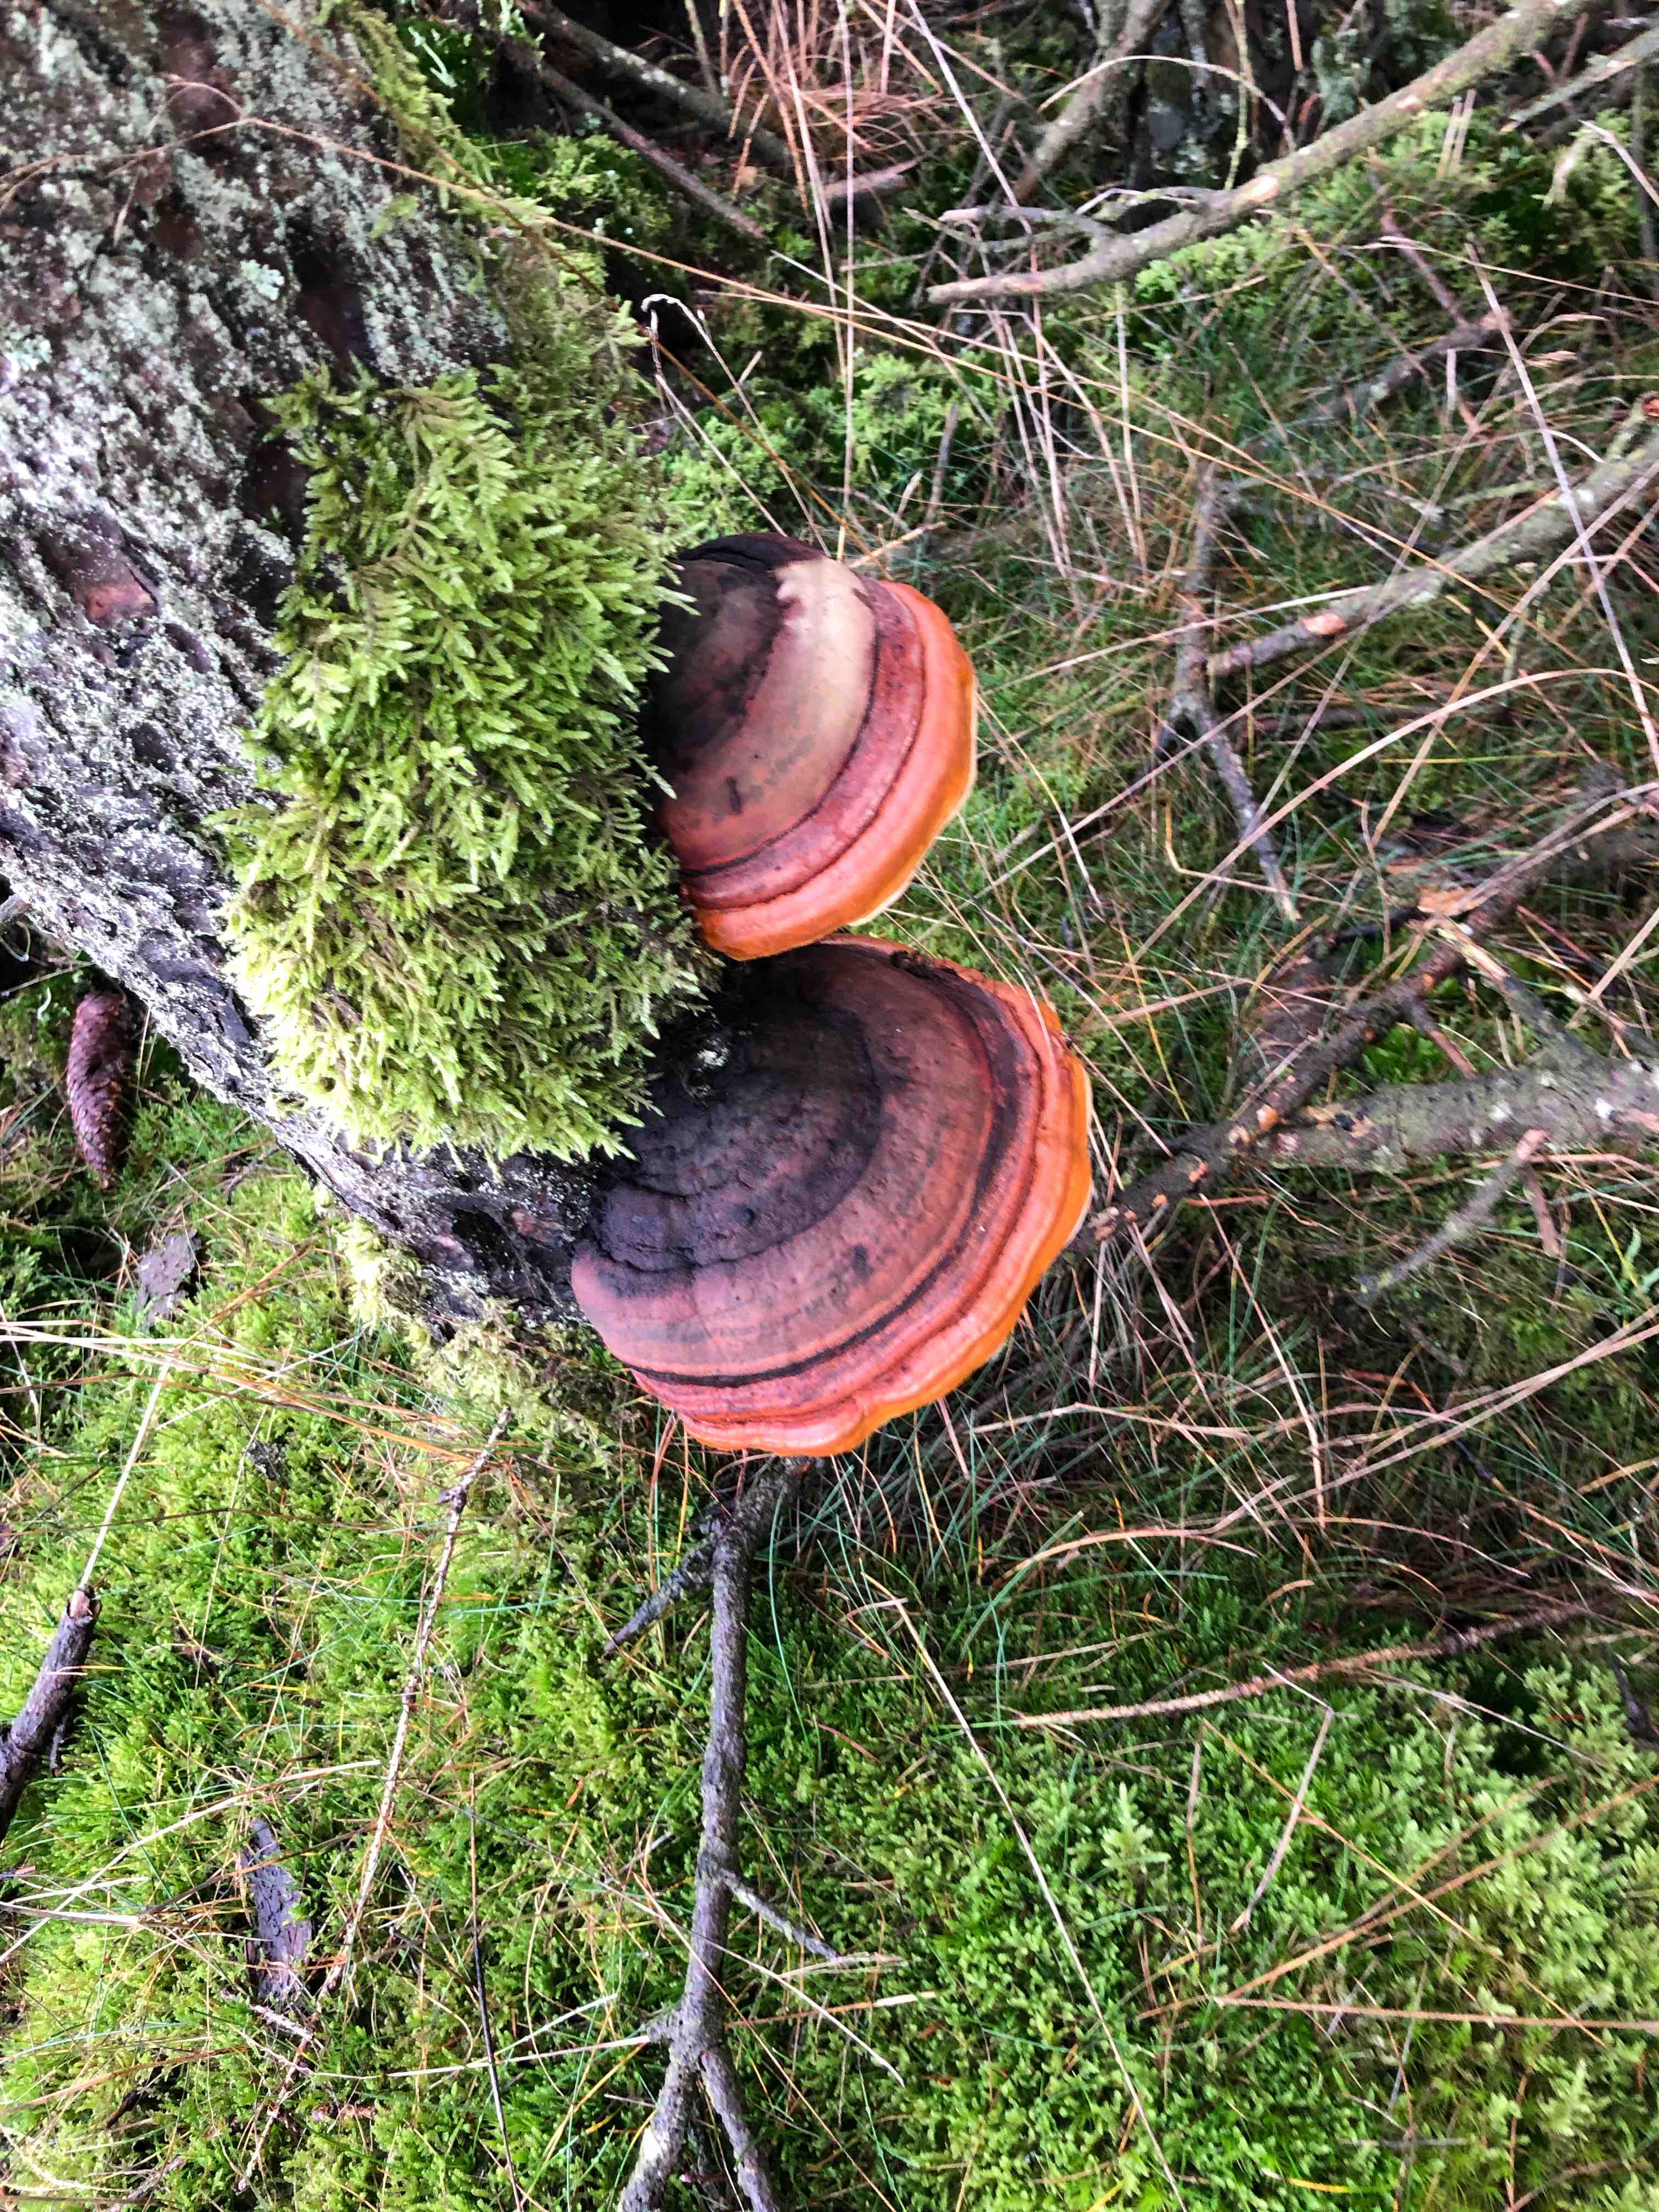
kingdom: Fungi
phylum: Basidiomycota
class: Agaricomycetes
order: Polyporales
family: Fomitopsidaceae
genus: Fomitopsis
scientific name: Fomitopsis pinicola
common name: randbæltet hovporesvamp
